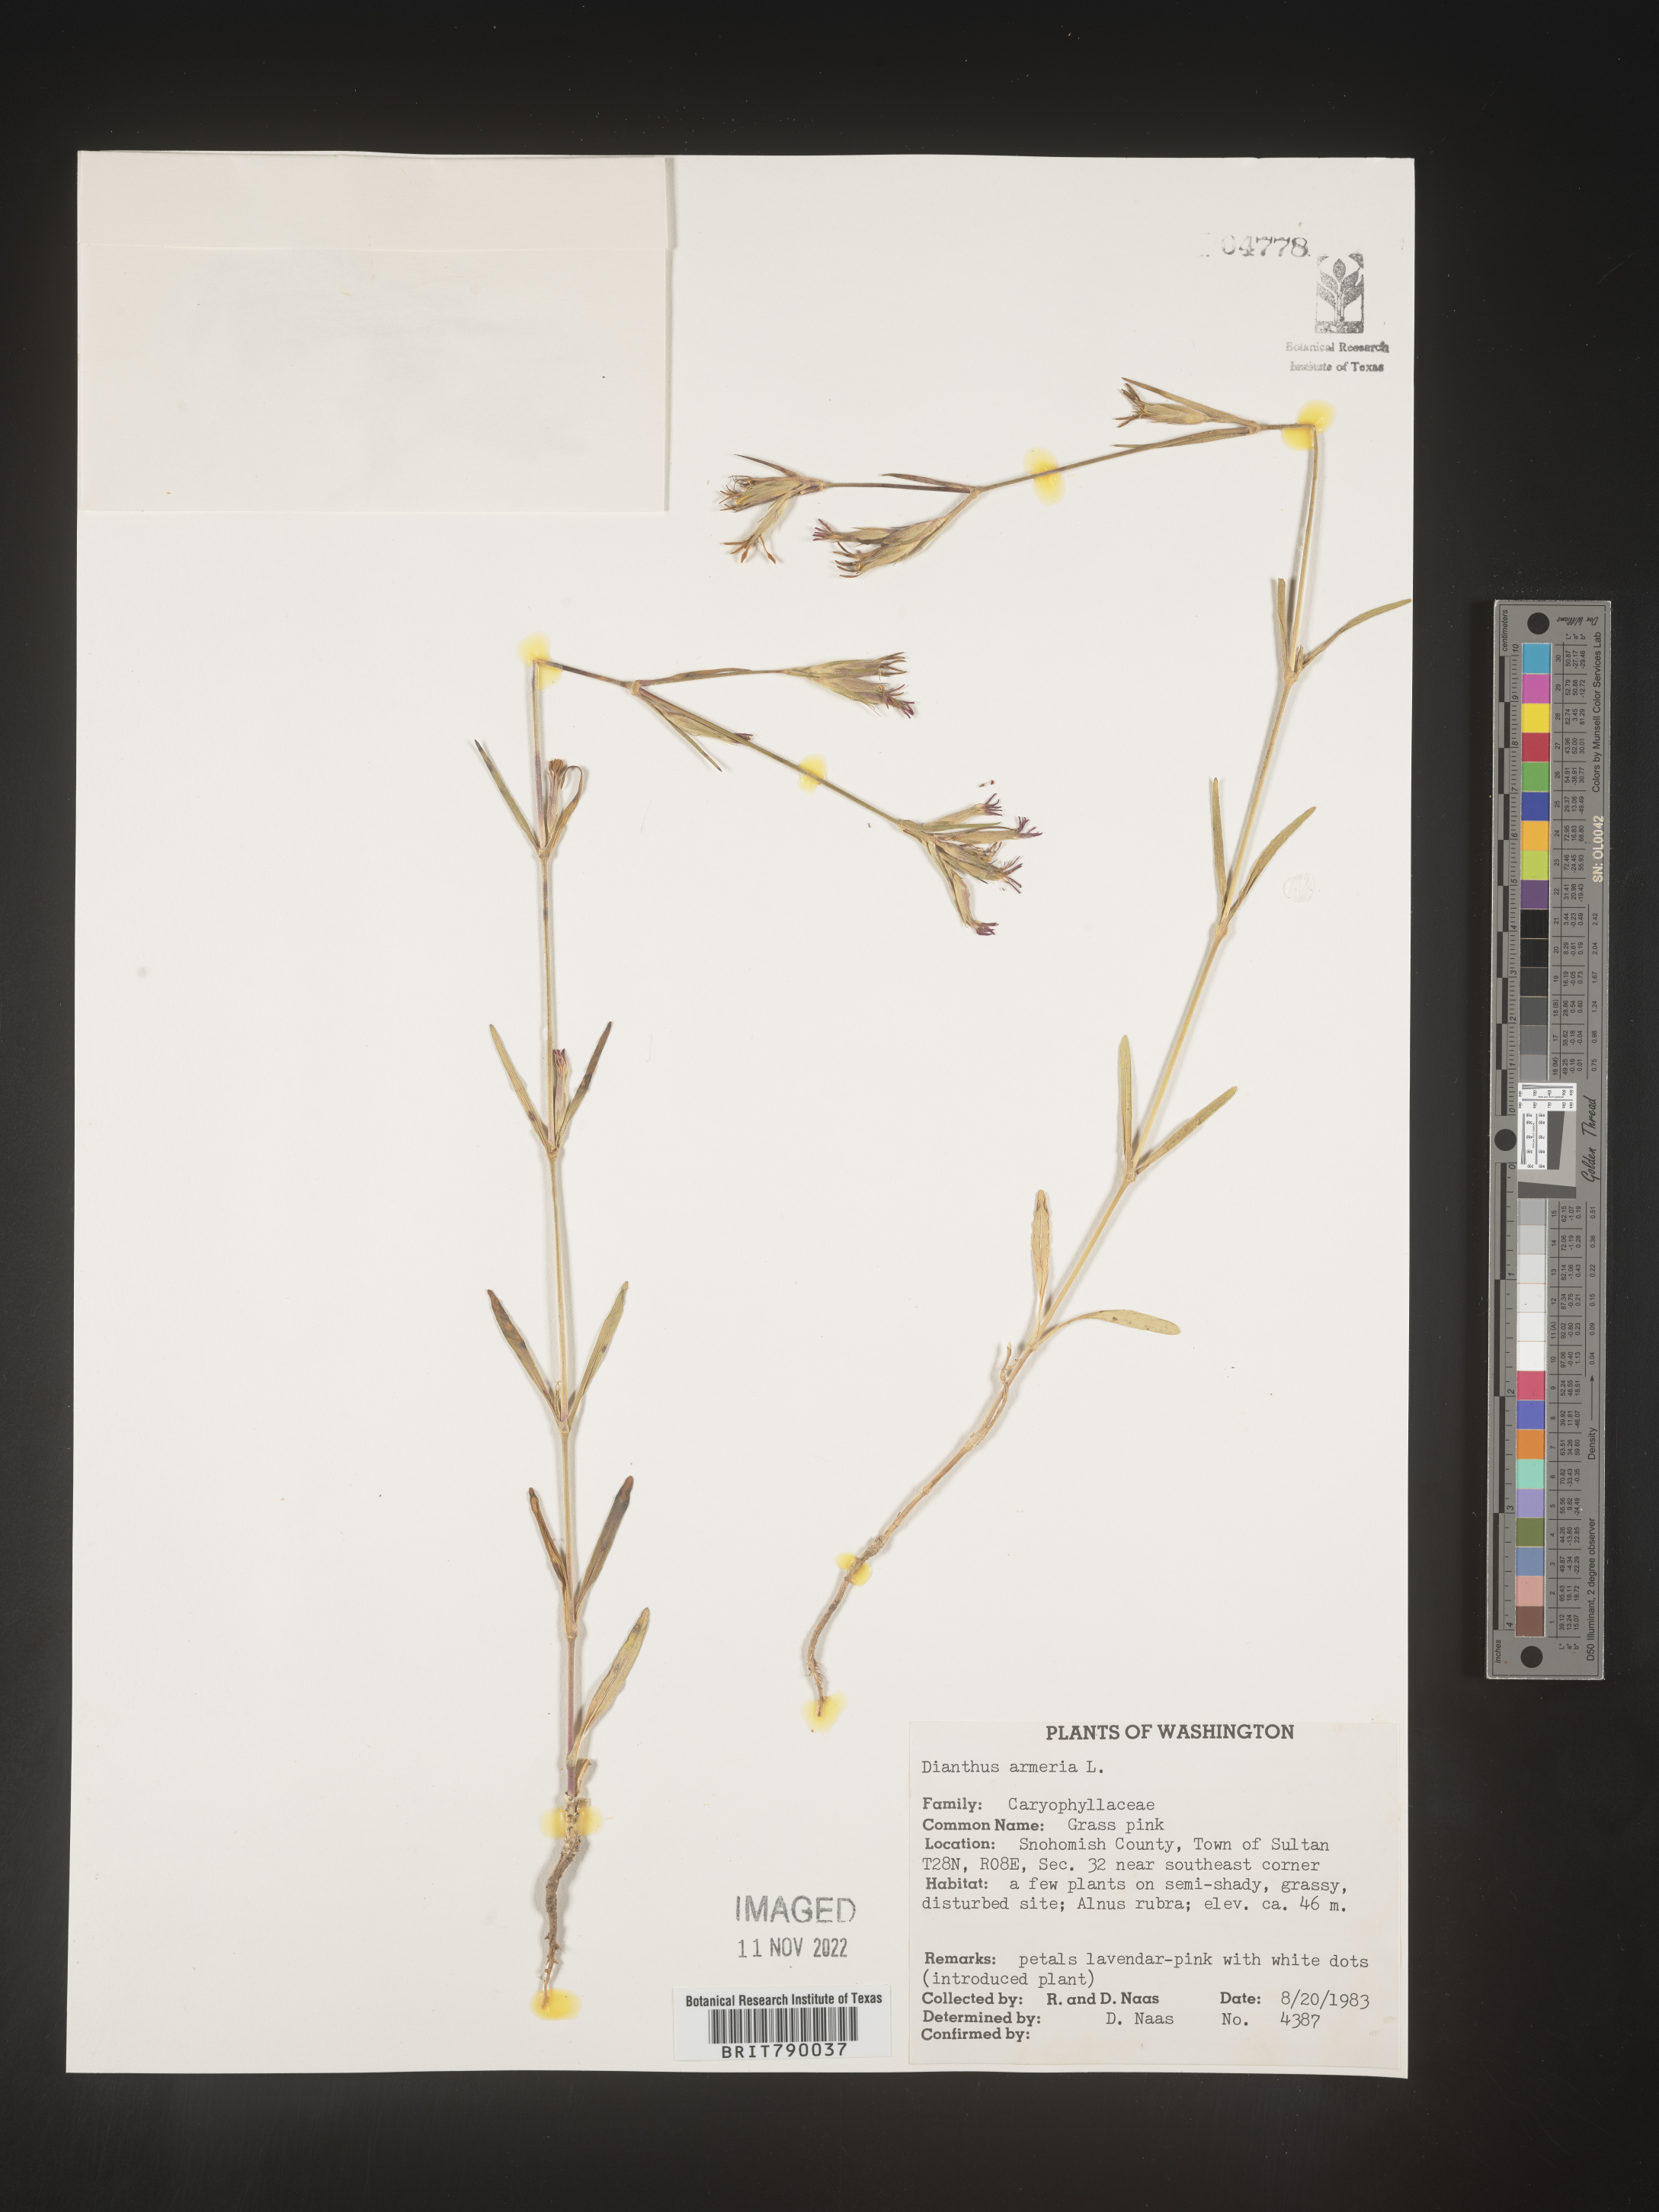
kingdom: Plantae
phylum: Tracheophyta
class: Magnoliopsida
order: Caryophyllales
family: Caryophyllaceae
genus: Dianthus
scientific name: Dianthus armeria
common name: Deptford pink
